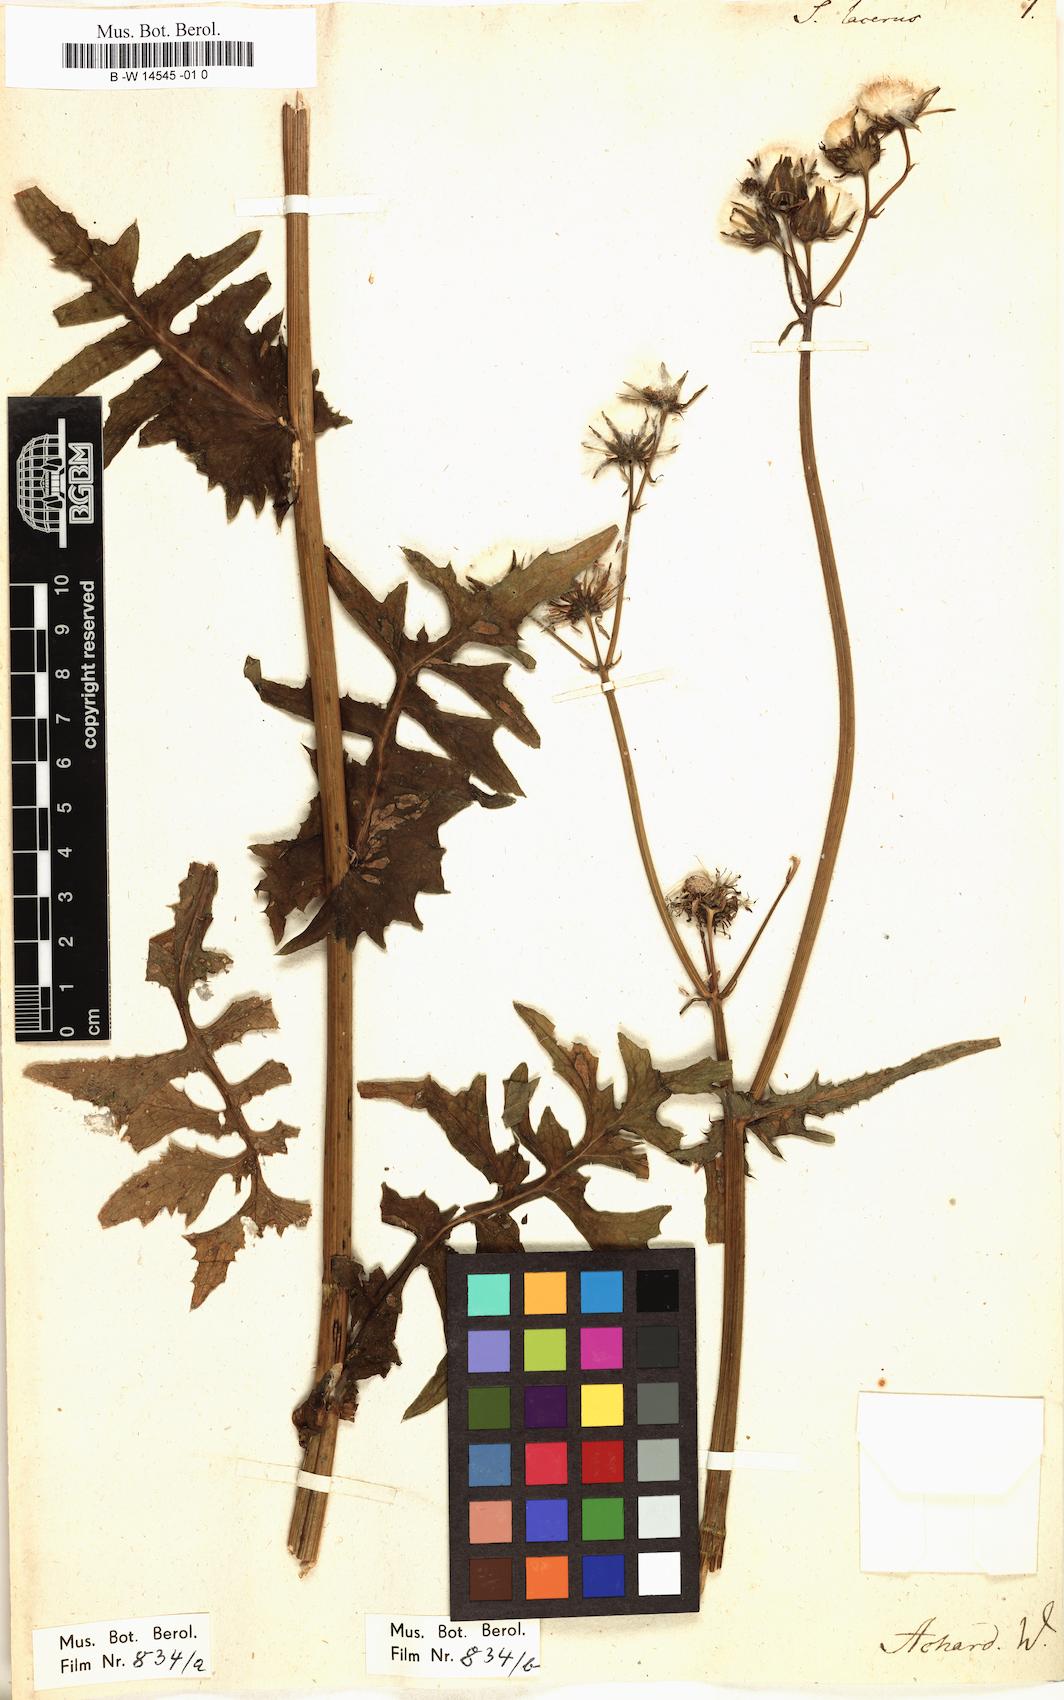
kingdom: Plantae
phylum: Tracheophyta
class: Magnoliopsida
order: Asterales
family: Asteraceae
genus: Sonchus
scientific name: Sonchus oleraceus
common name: Common sowthistle
